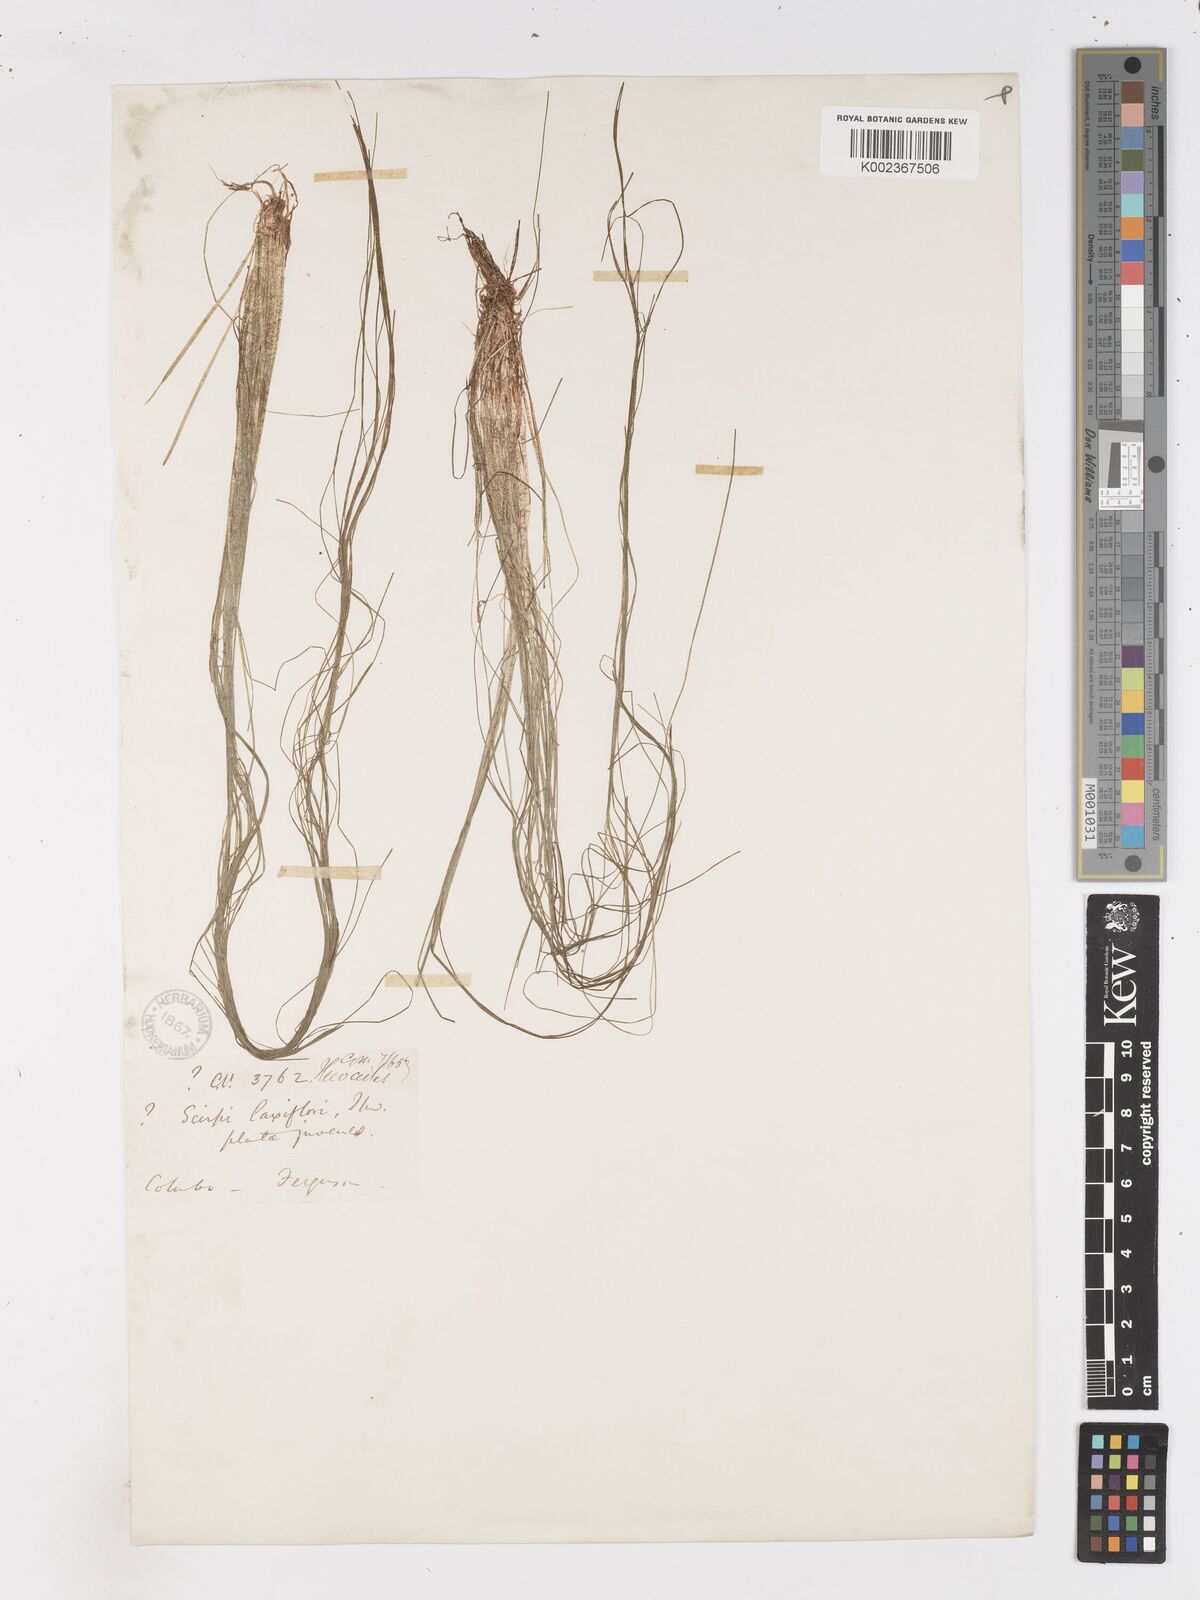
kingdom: Plantae
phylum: Tracheophyta
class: Liliopsida
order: Poales
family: Cyperaceae
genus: Isolepis
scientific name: Isolepis fluitans
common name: Floating club-rush
